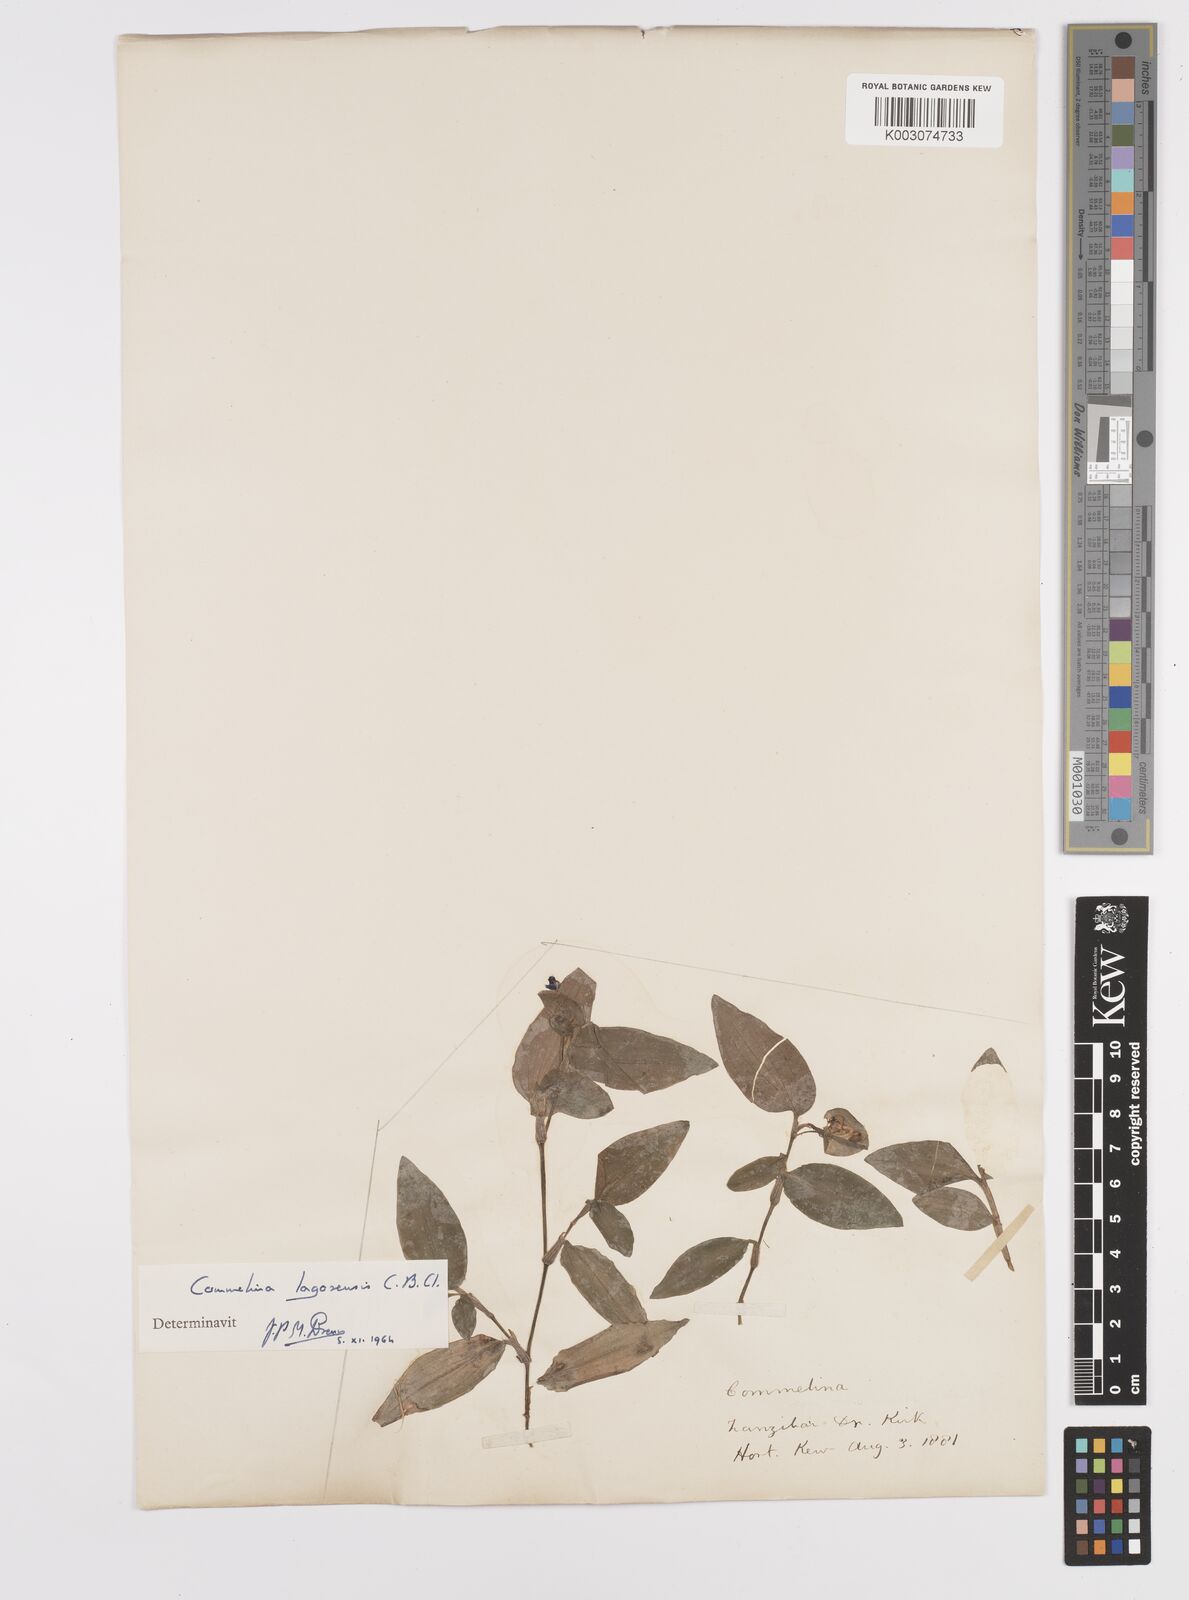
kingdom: Plantae
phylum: Tracheophyta
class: Liliopsida
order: Commelinales
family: Commelinaceae
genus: Commelina
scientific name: Commelina bracteosa
